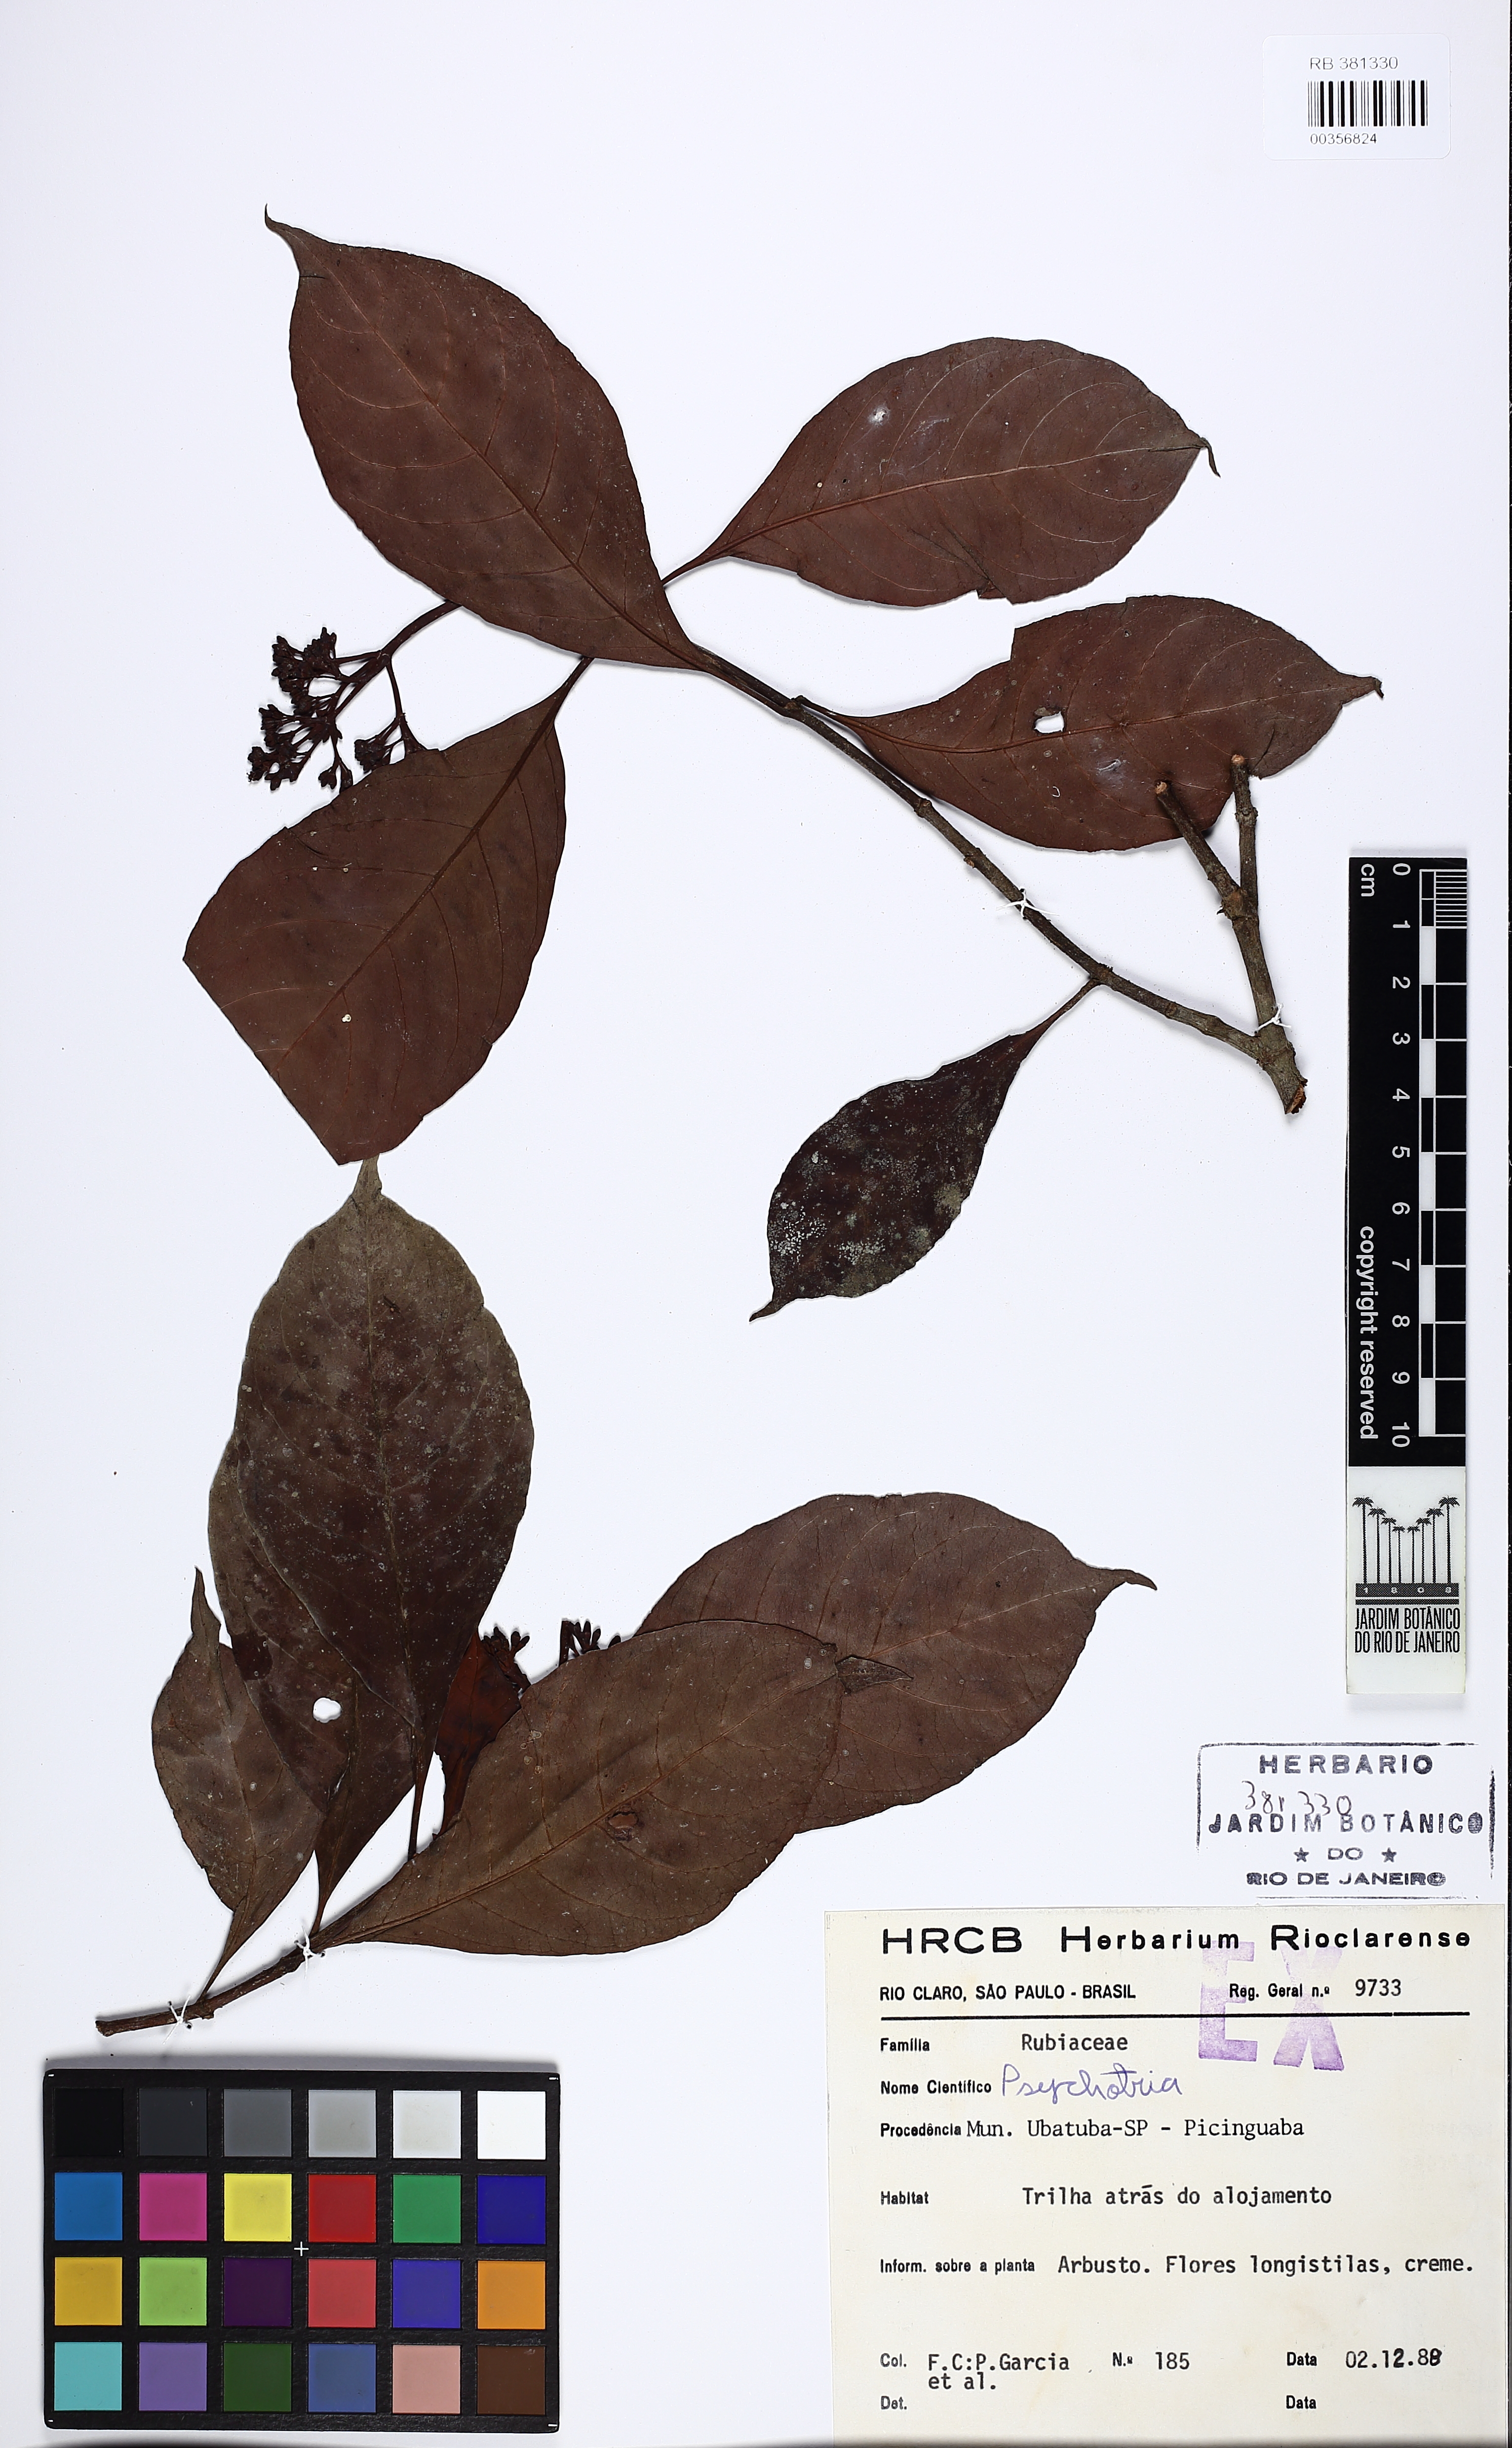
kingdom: Plantae
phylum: Tracheophyta
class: Magnoliopsida
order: Gentianales
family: Rubiaceae
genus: Psychotria
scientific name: Psychotria
